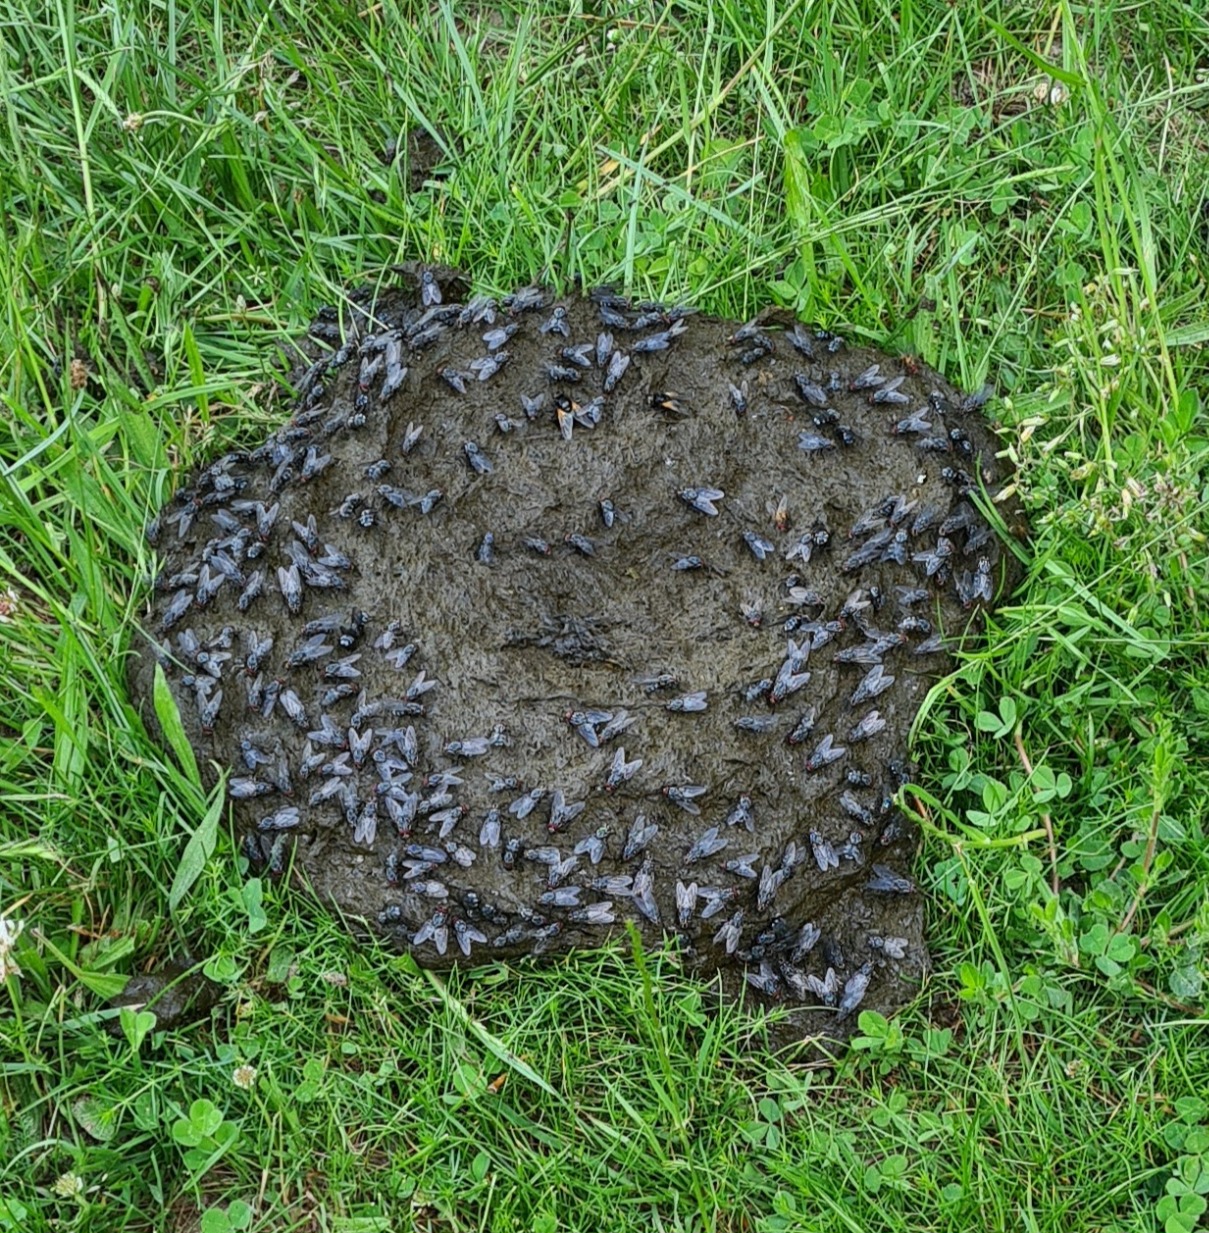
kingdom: Animalia
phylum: Arthropoda
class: Insecta
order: Diptera
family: Muscidae
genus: Mesembrina
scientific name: Mesembrina meridiana
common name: Gulvinget flue
